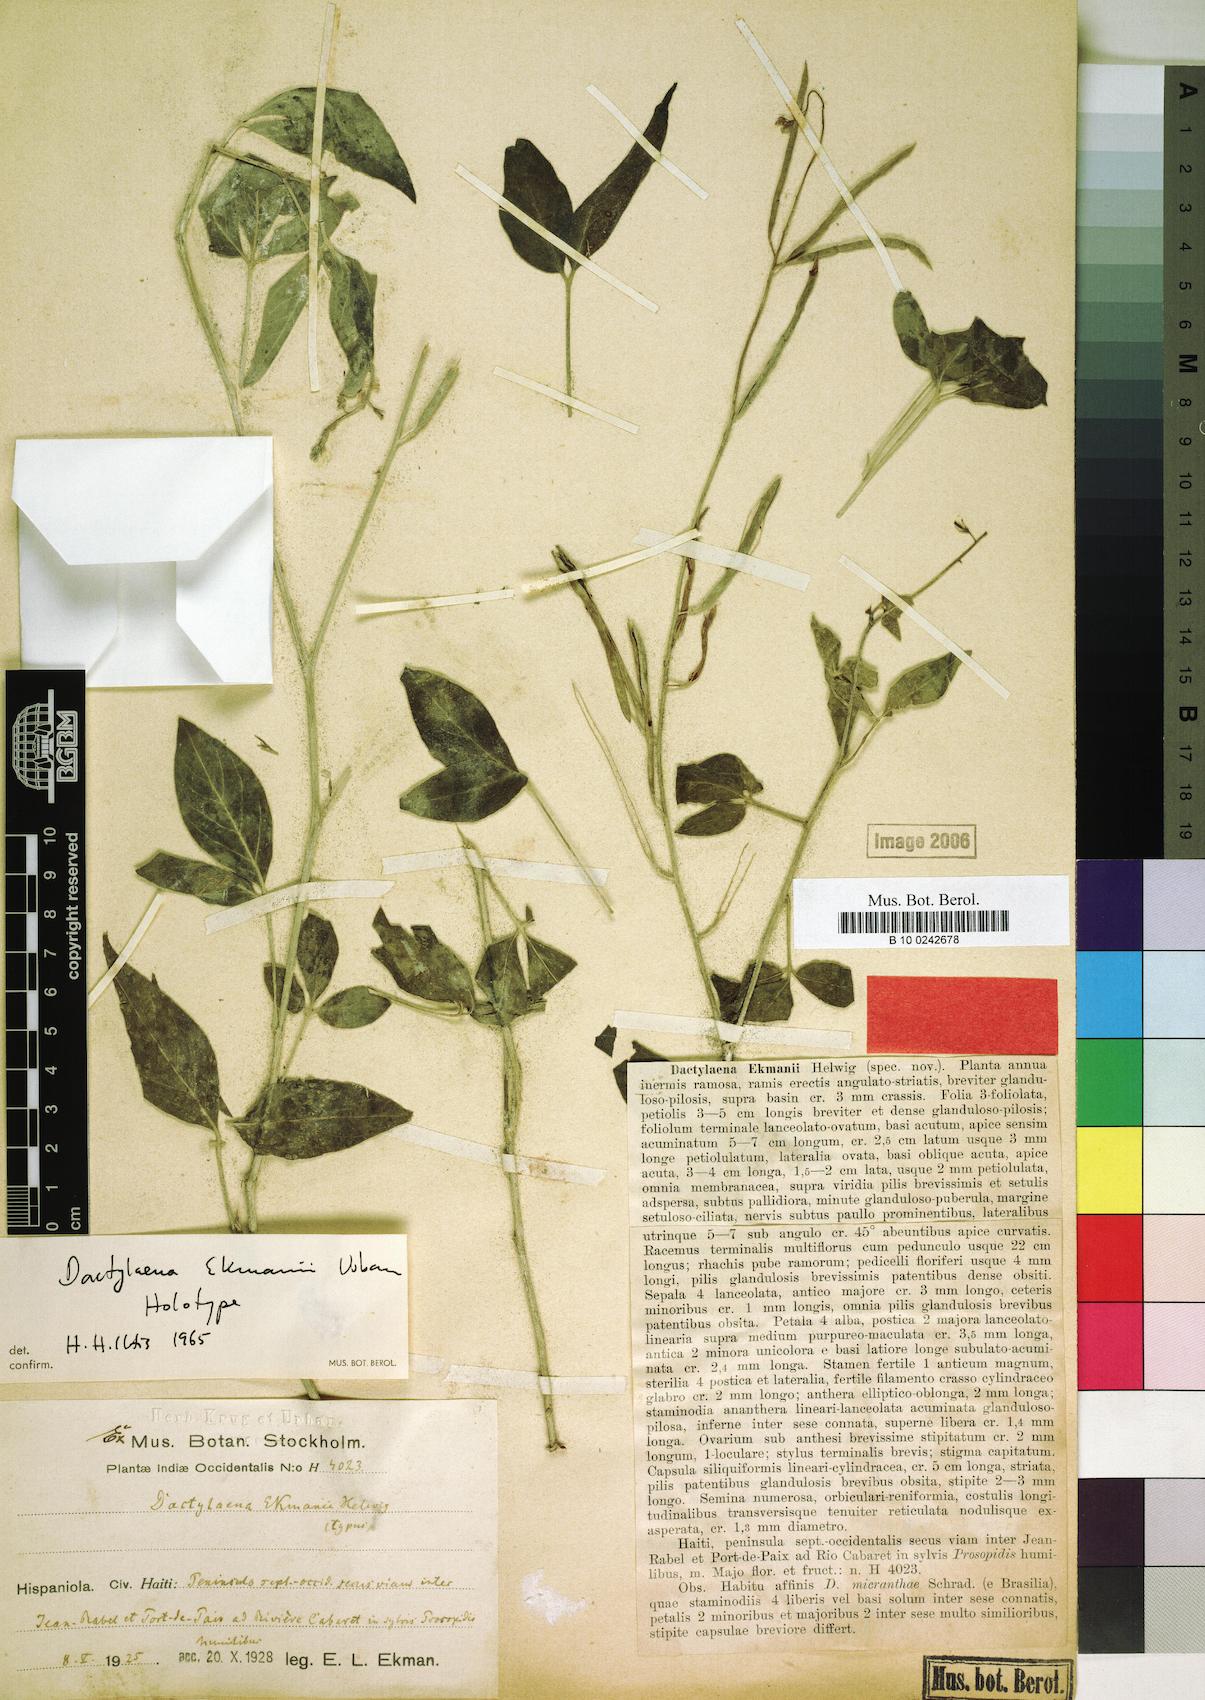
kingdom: Plantae
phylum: Tracheophyta
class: Magnoliopsida
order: Brassicales
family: Cleomaceae
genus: Dactylaena
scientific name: Dactylaena ekmanii
